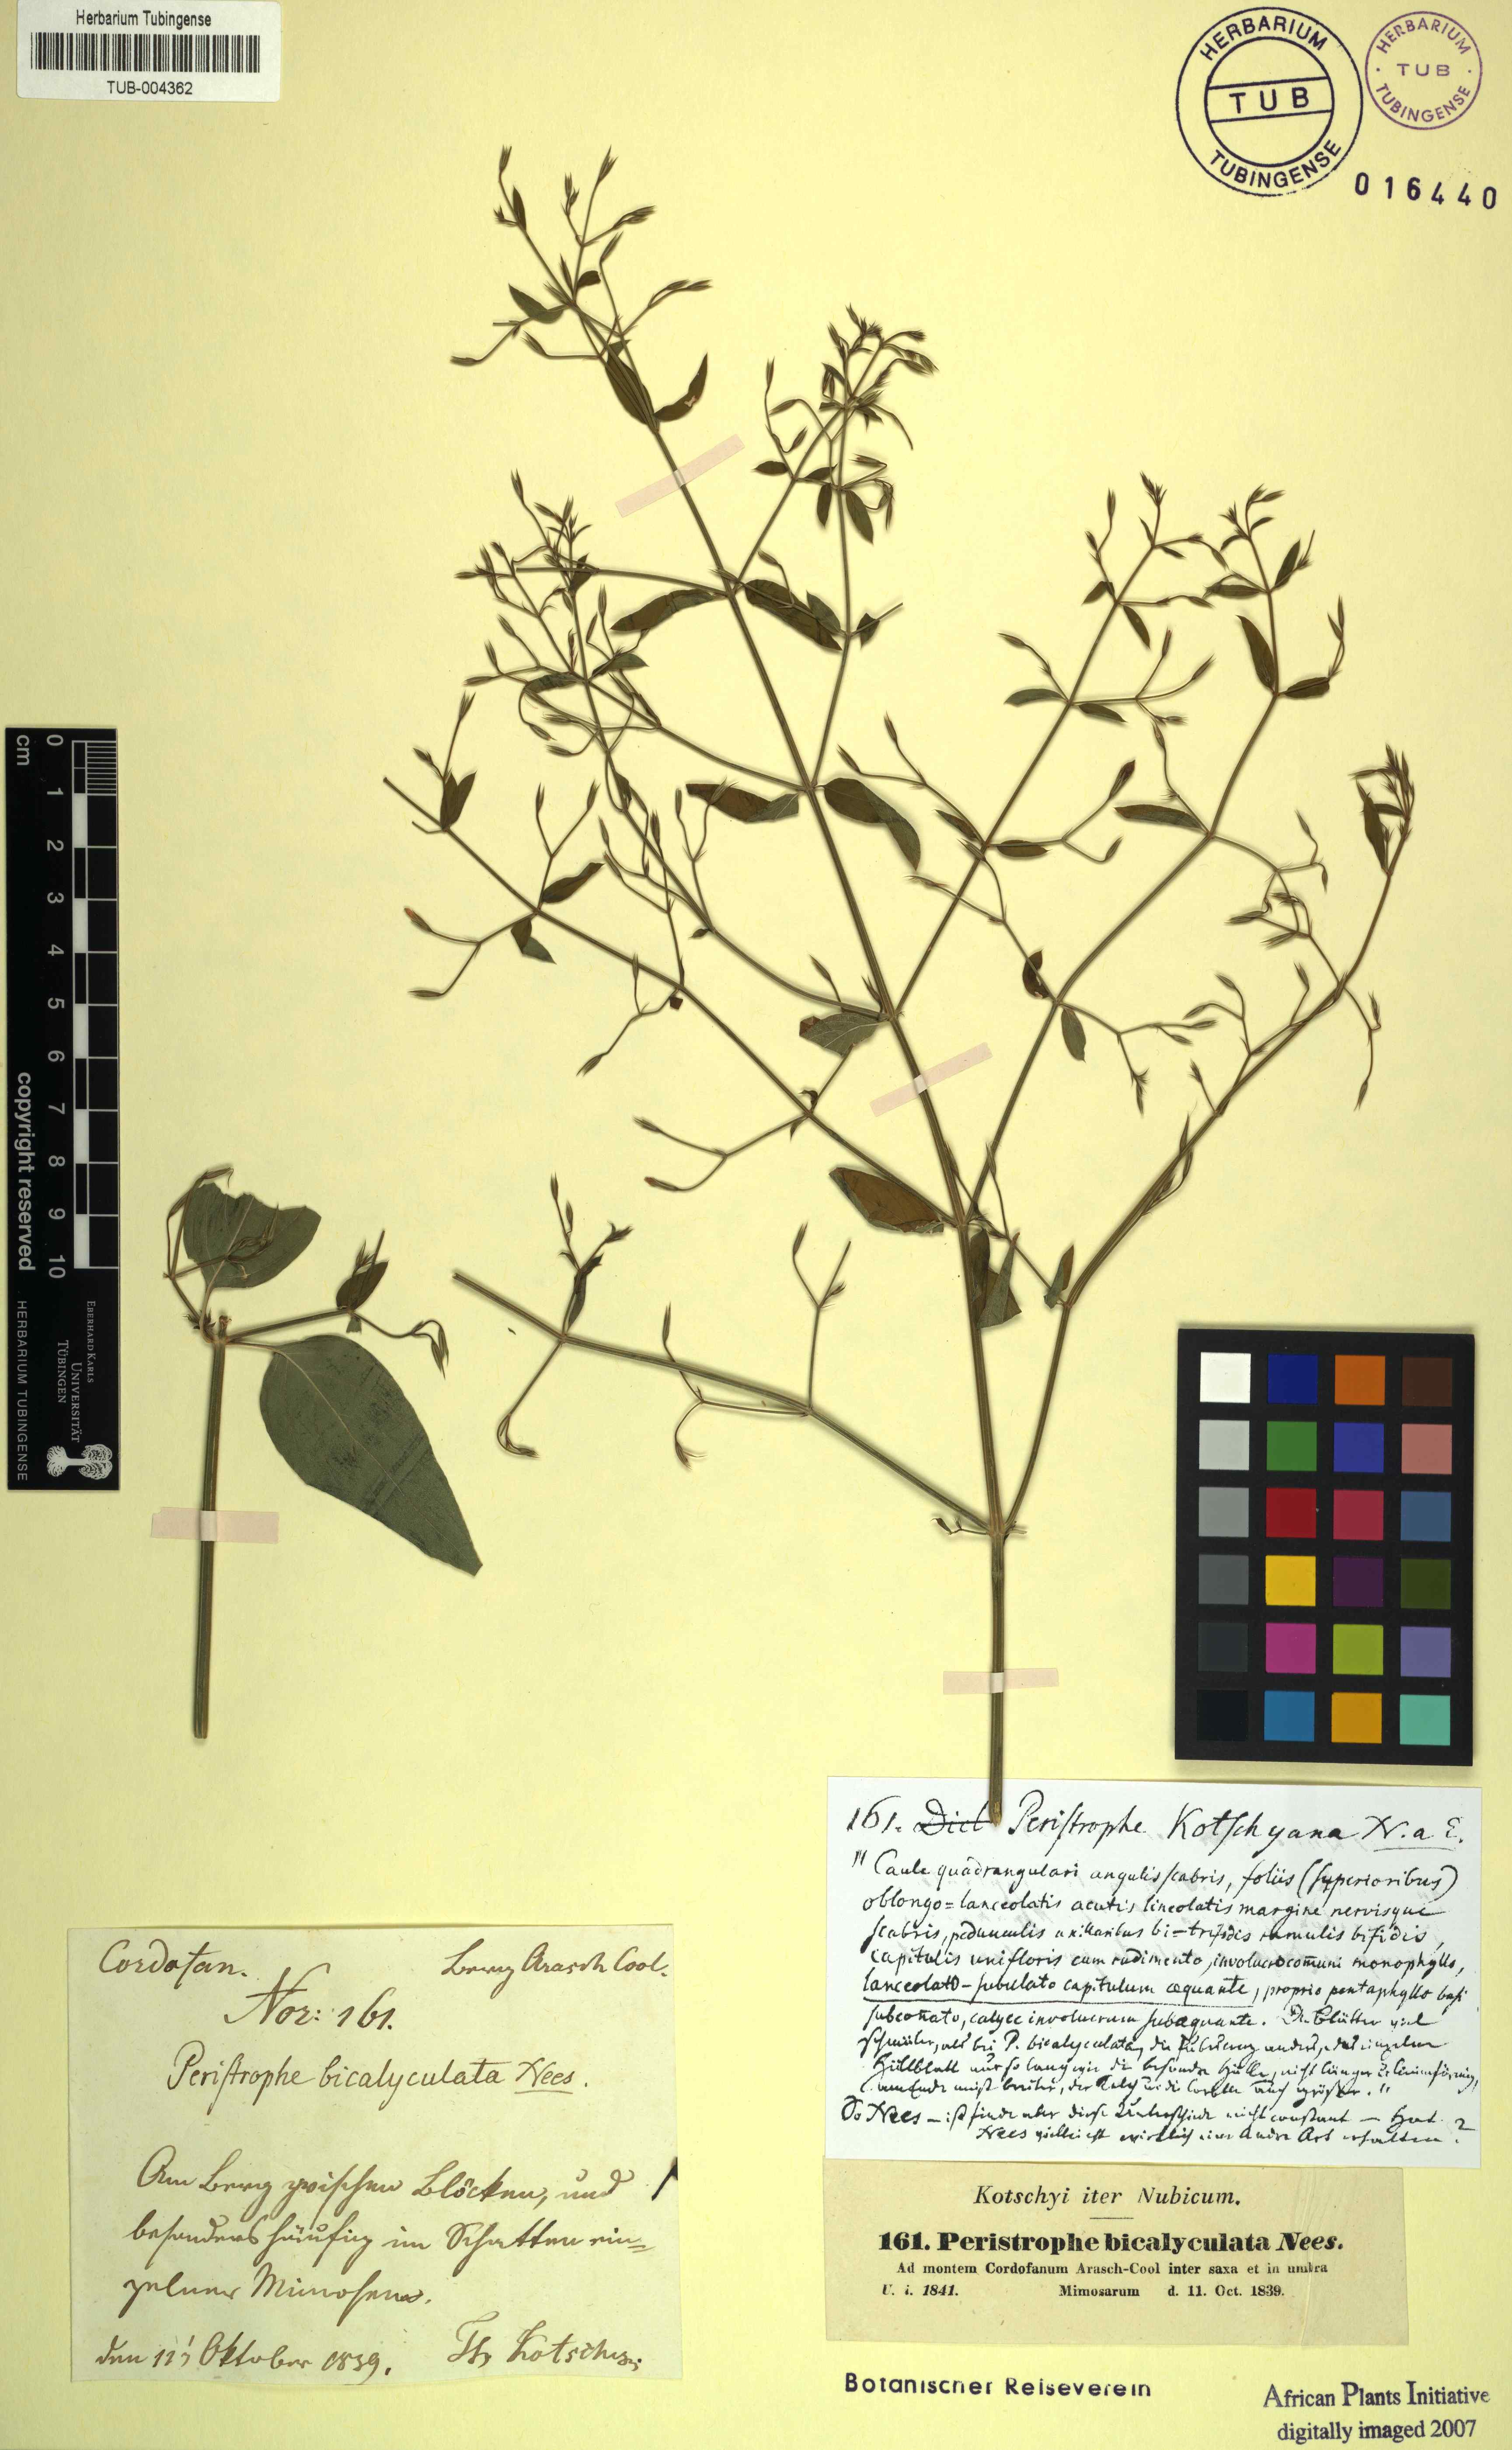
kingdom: Plantae
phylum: Tracheophyta
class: Magnoliopsida
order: Lamiales
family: Acanthaceae
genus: Dicliptera
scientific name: Dicliptera paniculata
